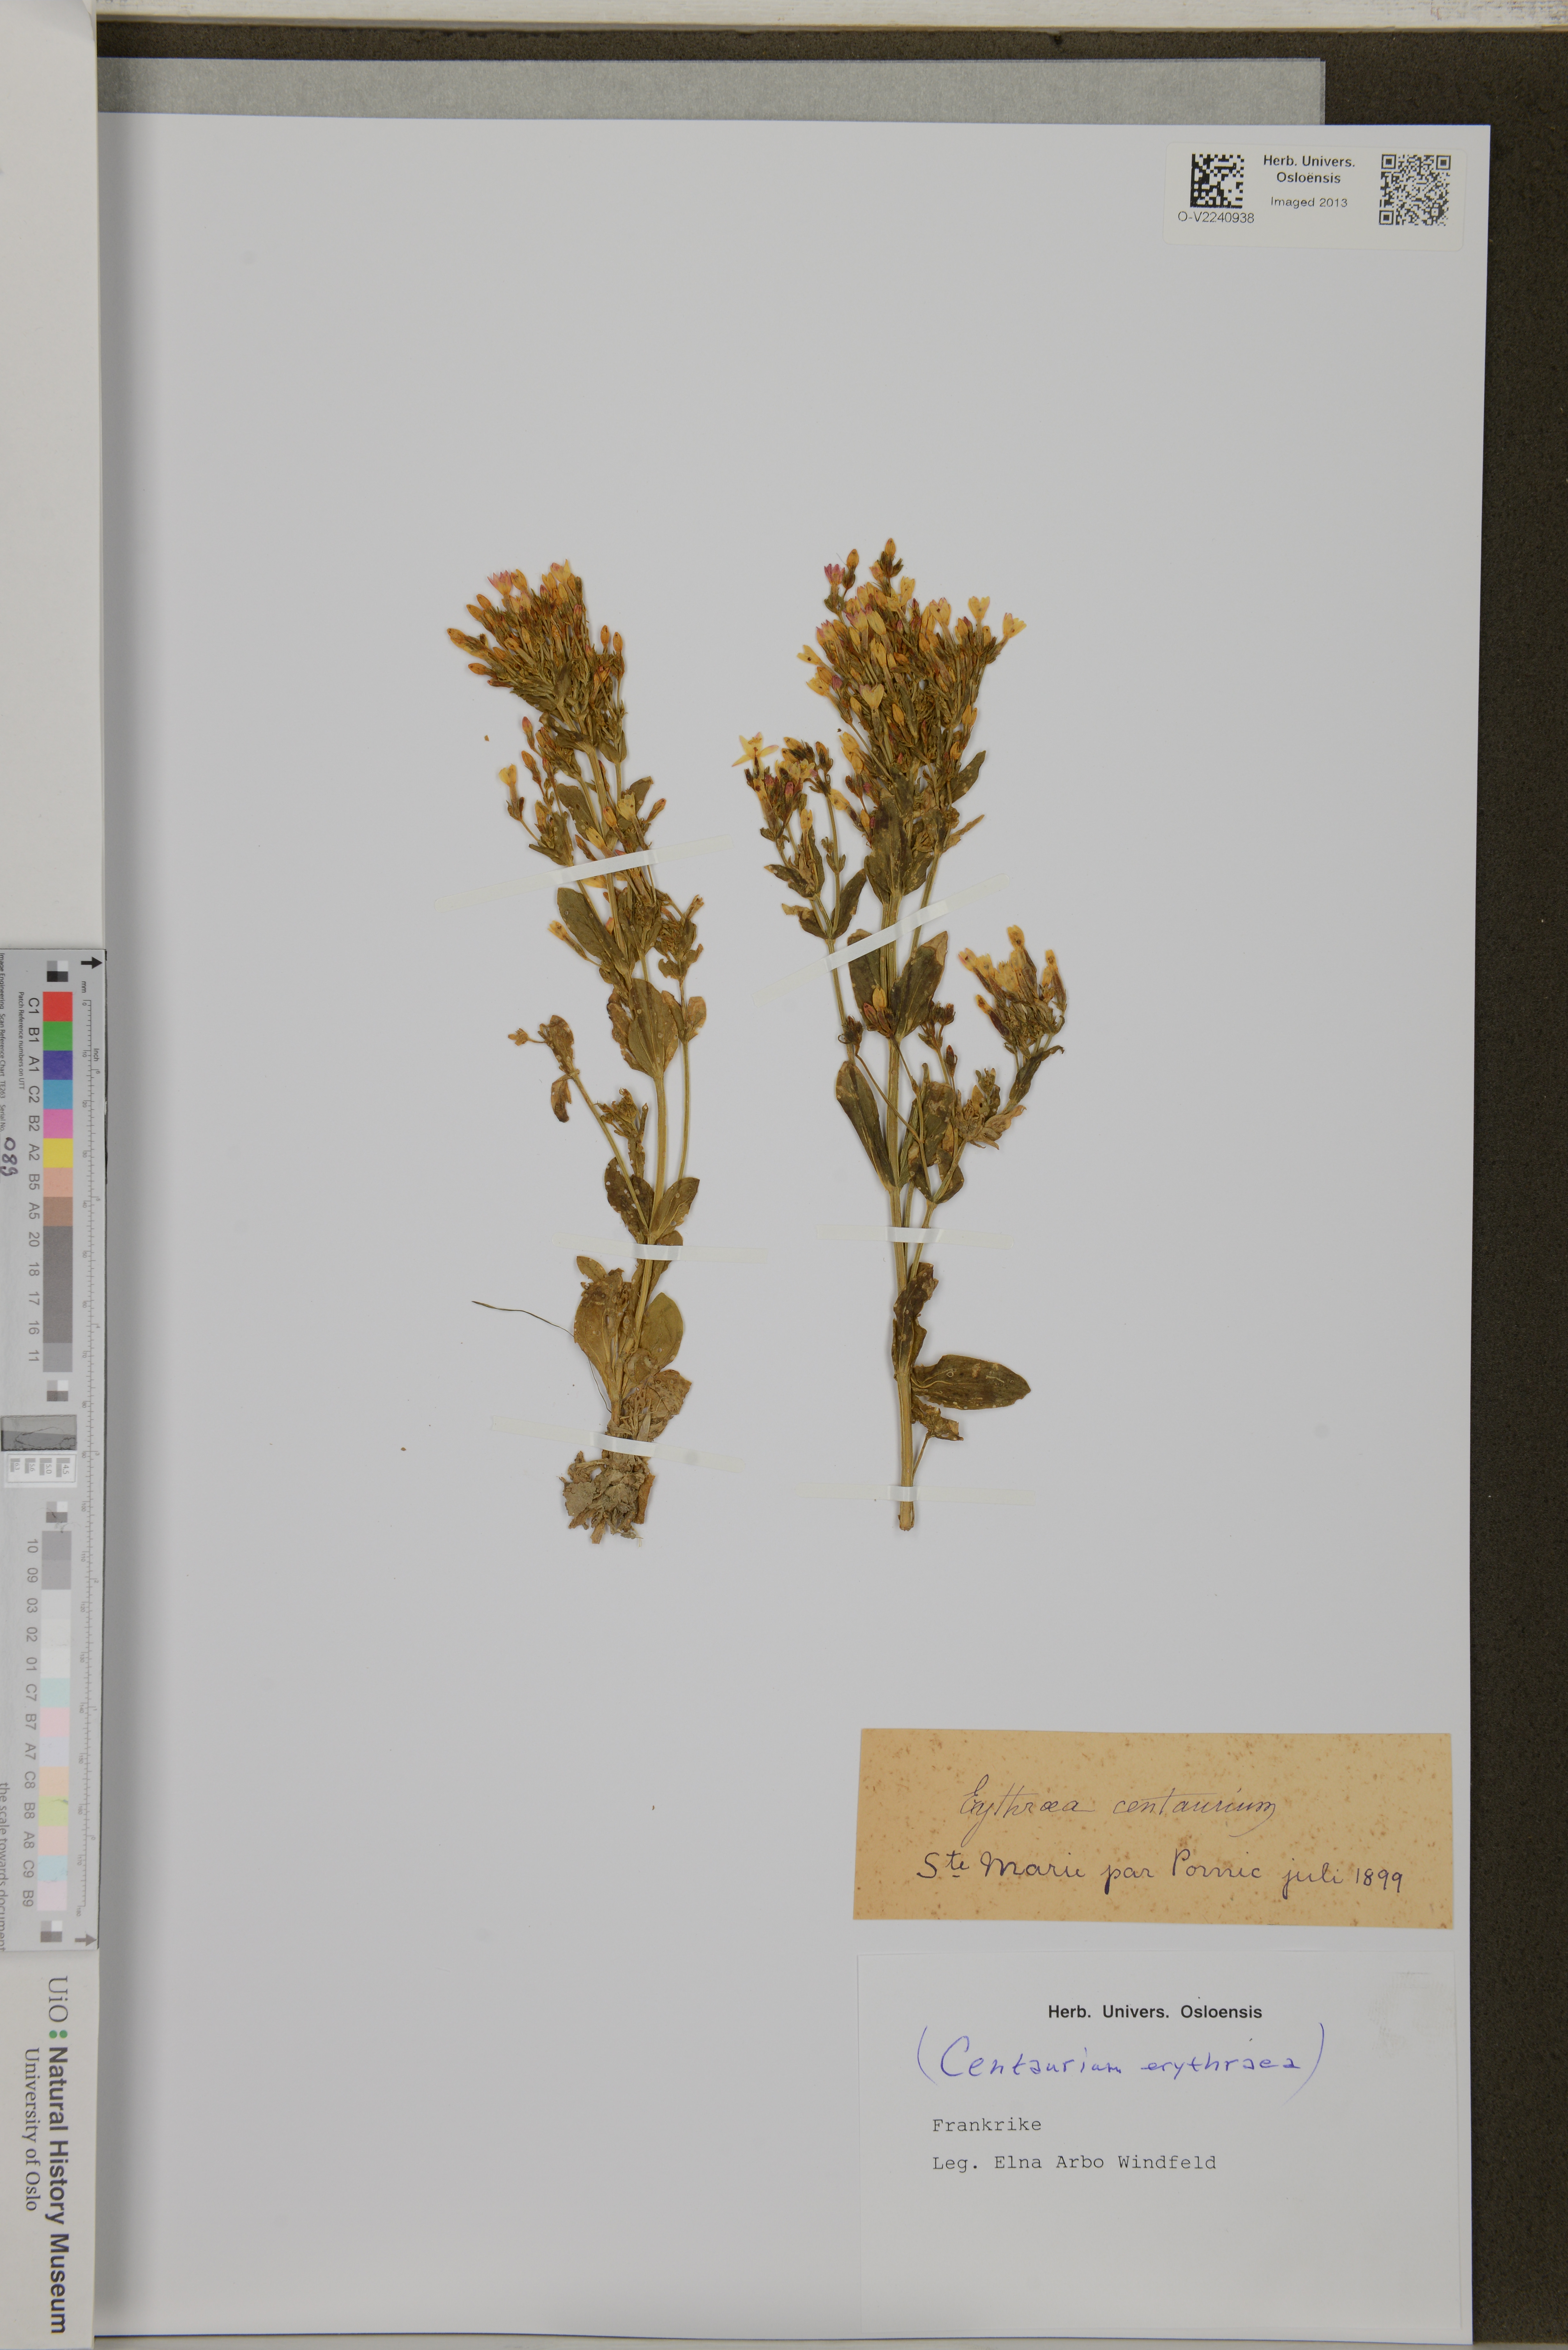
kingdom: Plantae
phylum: Tracheophyta
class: Magnoliopsida
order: Gentianales
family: Gentianaceae
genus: Centaurium
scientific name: Centaurium erythraea
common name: Common centaury
